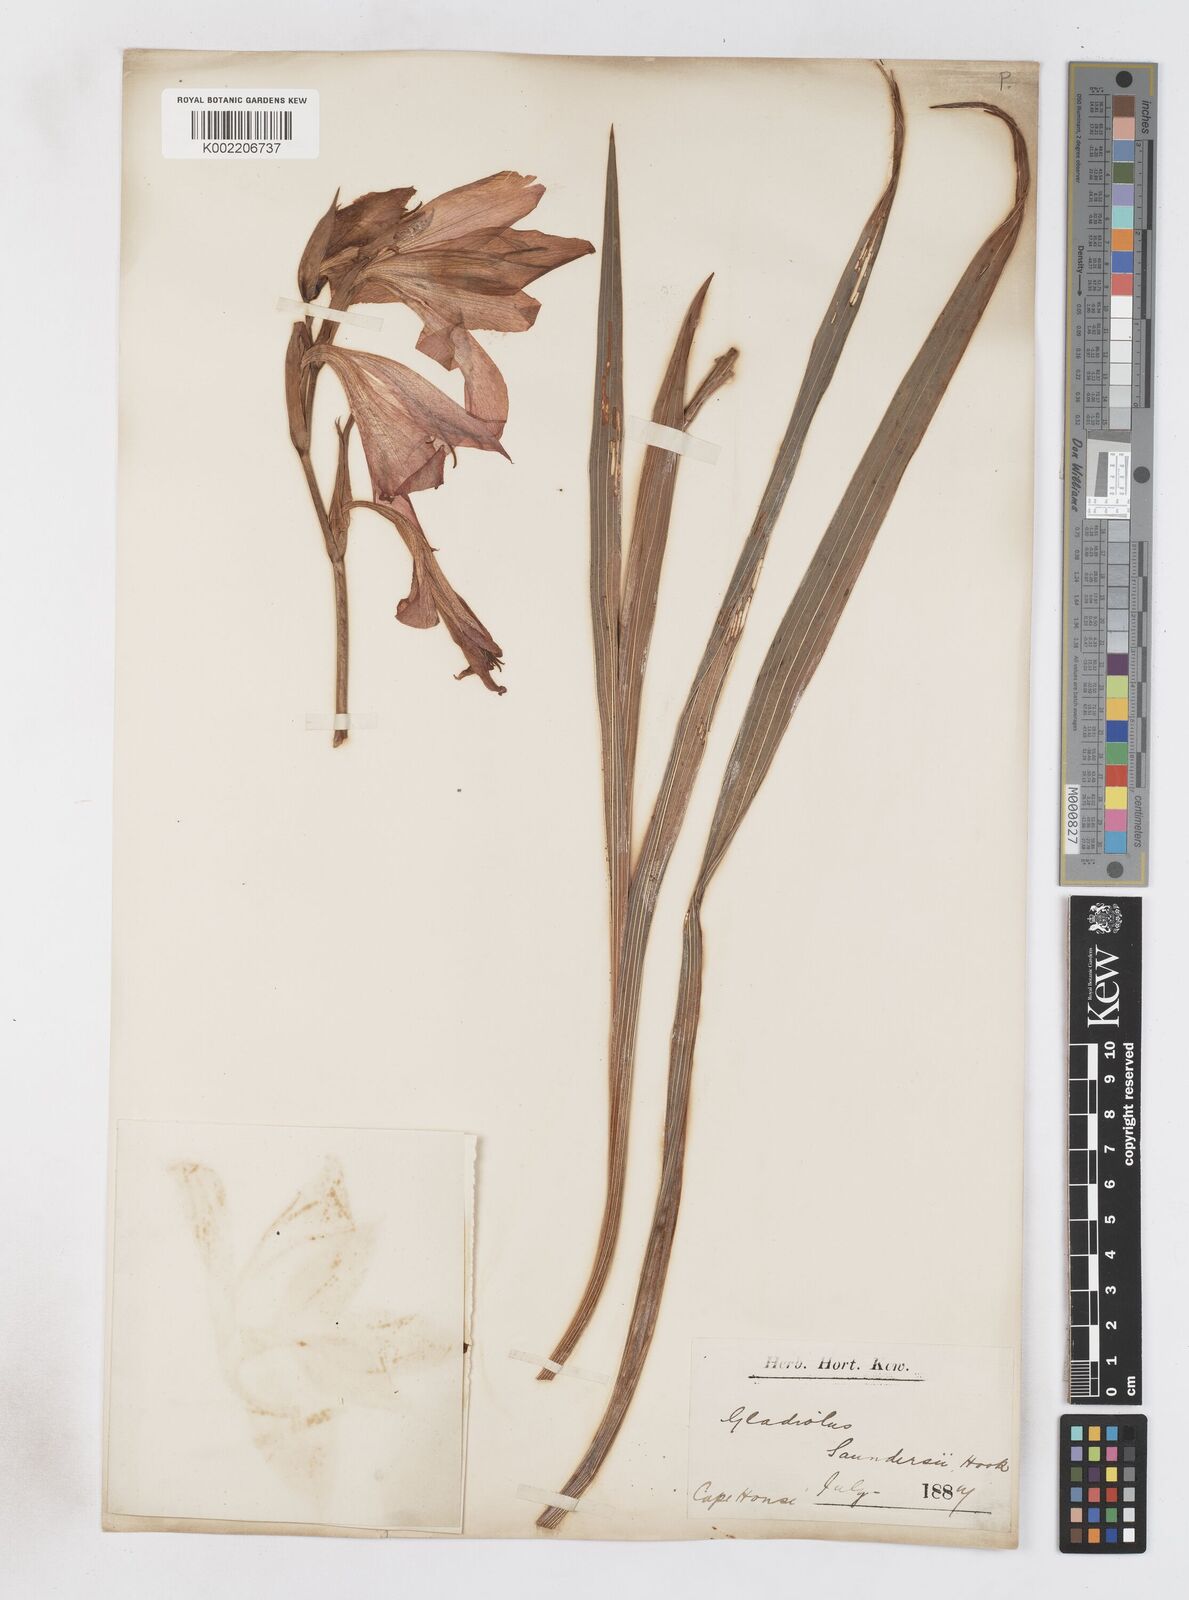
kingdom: Plantae
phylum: Tracheophyta
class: Liliopsida
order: Asparagales
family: Iridaceae
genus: Gladiolus
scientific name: Gladiolus saundersii
